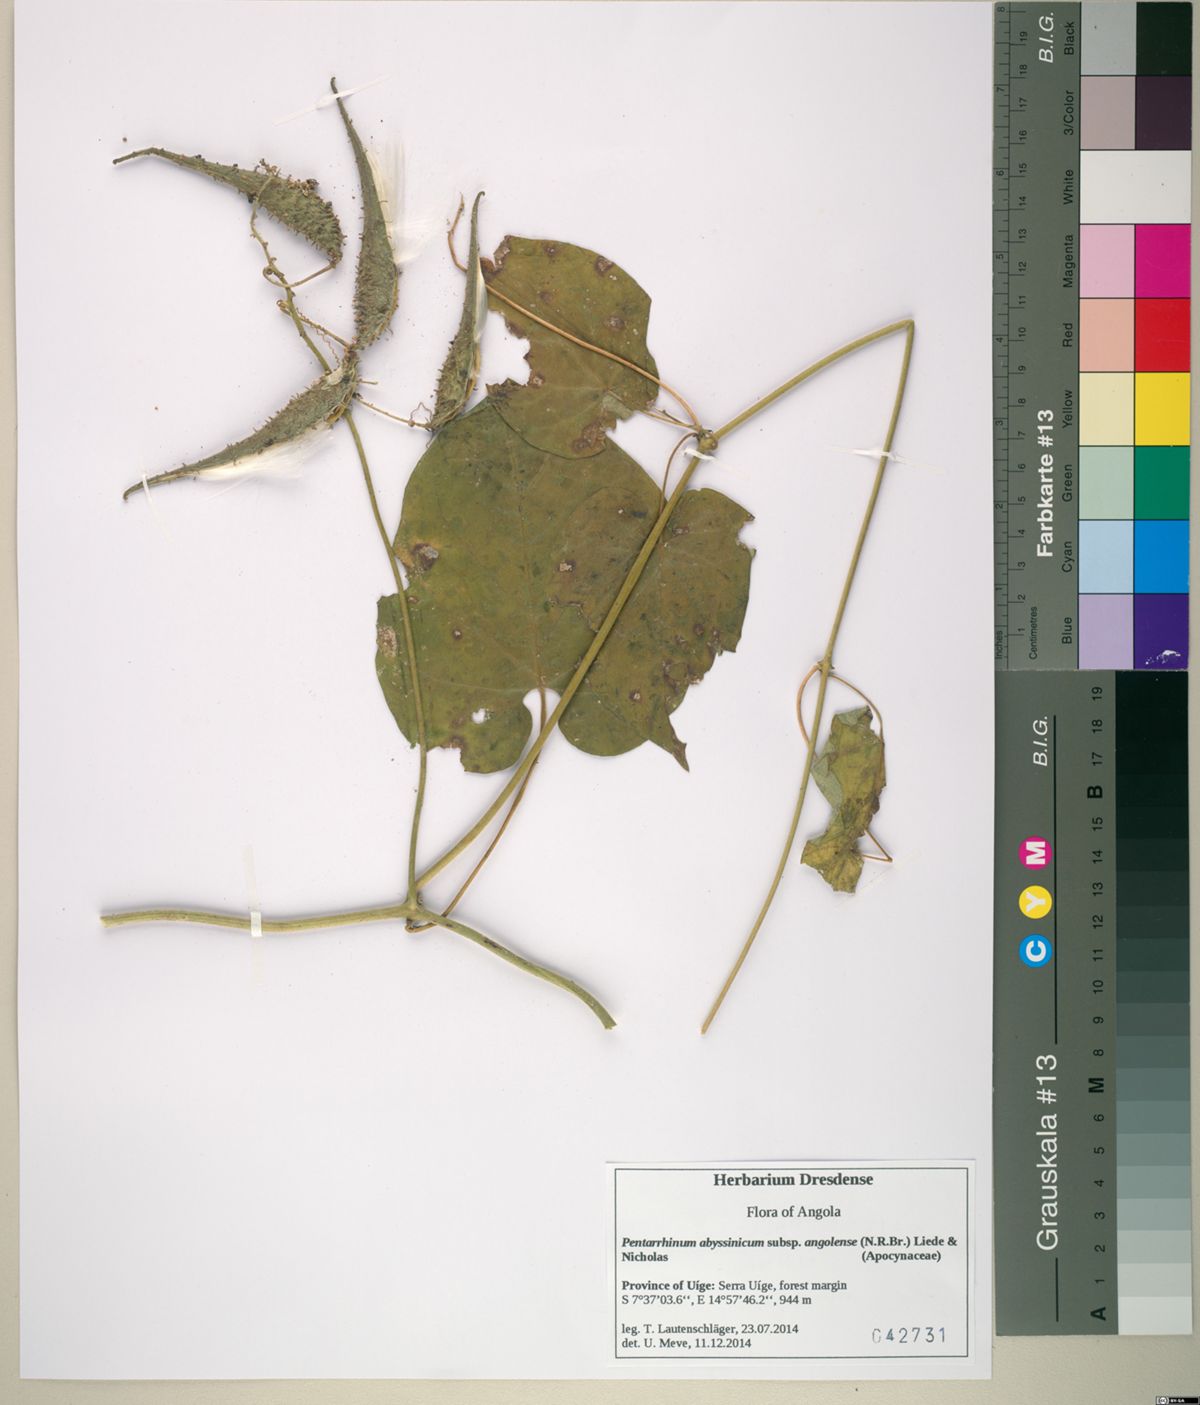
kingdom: Plantae
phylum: Tracheophyta
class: Magnoliopsida
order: Gentianales
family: Apocynaceae
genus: Cynanchum
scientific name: Cynanchum ethiopicum
